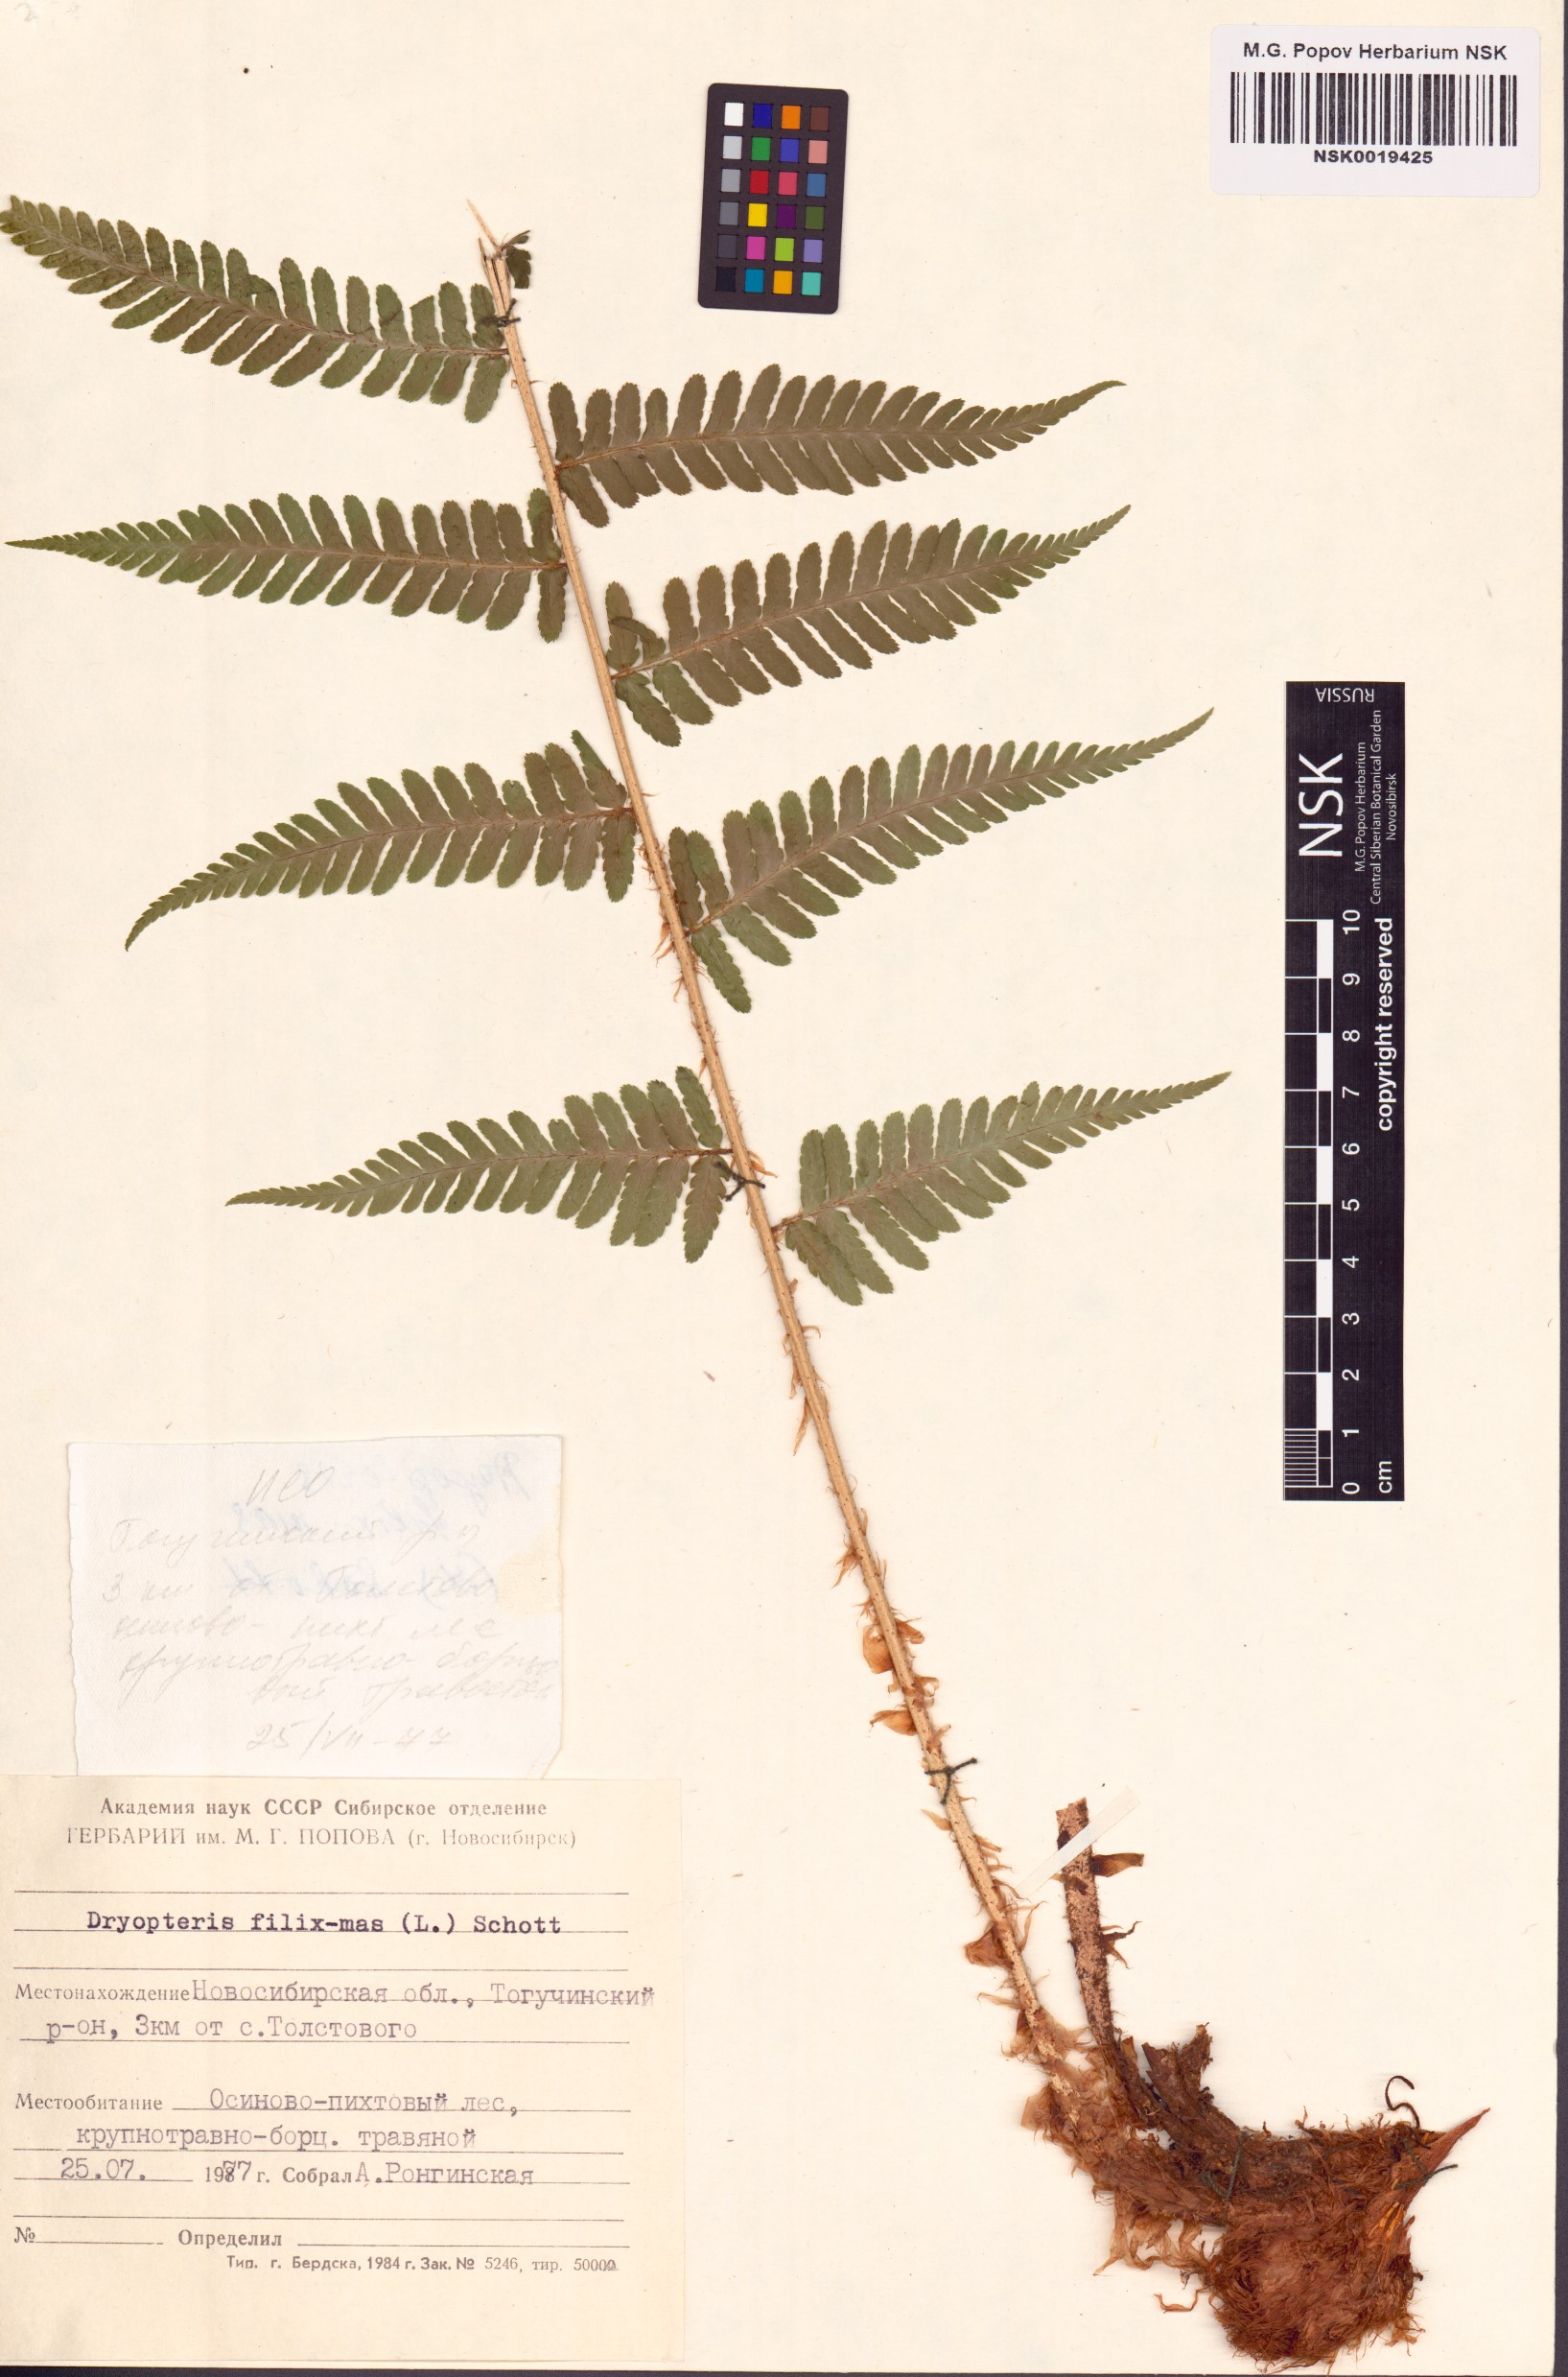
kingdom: Plantae
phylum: Tracheophyta
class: Polypodiopsida
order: Polypodiales
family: Dryopteridaceae
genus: Dryopteris
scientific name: Dryopteris filix-mas
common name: Male fern
